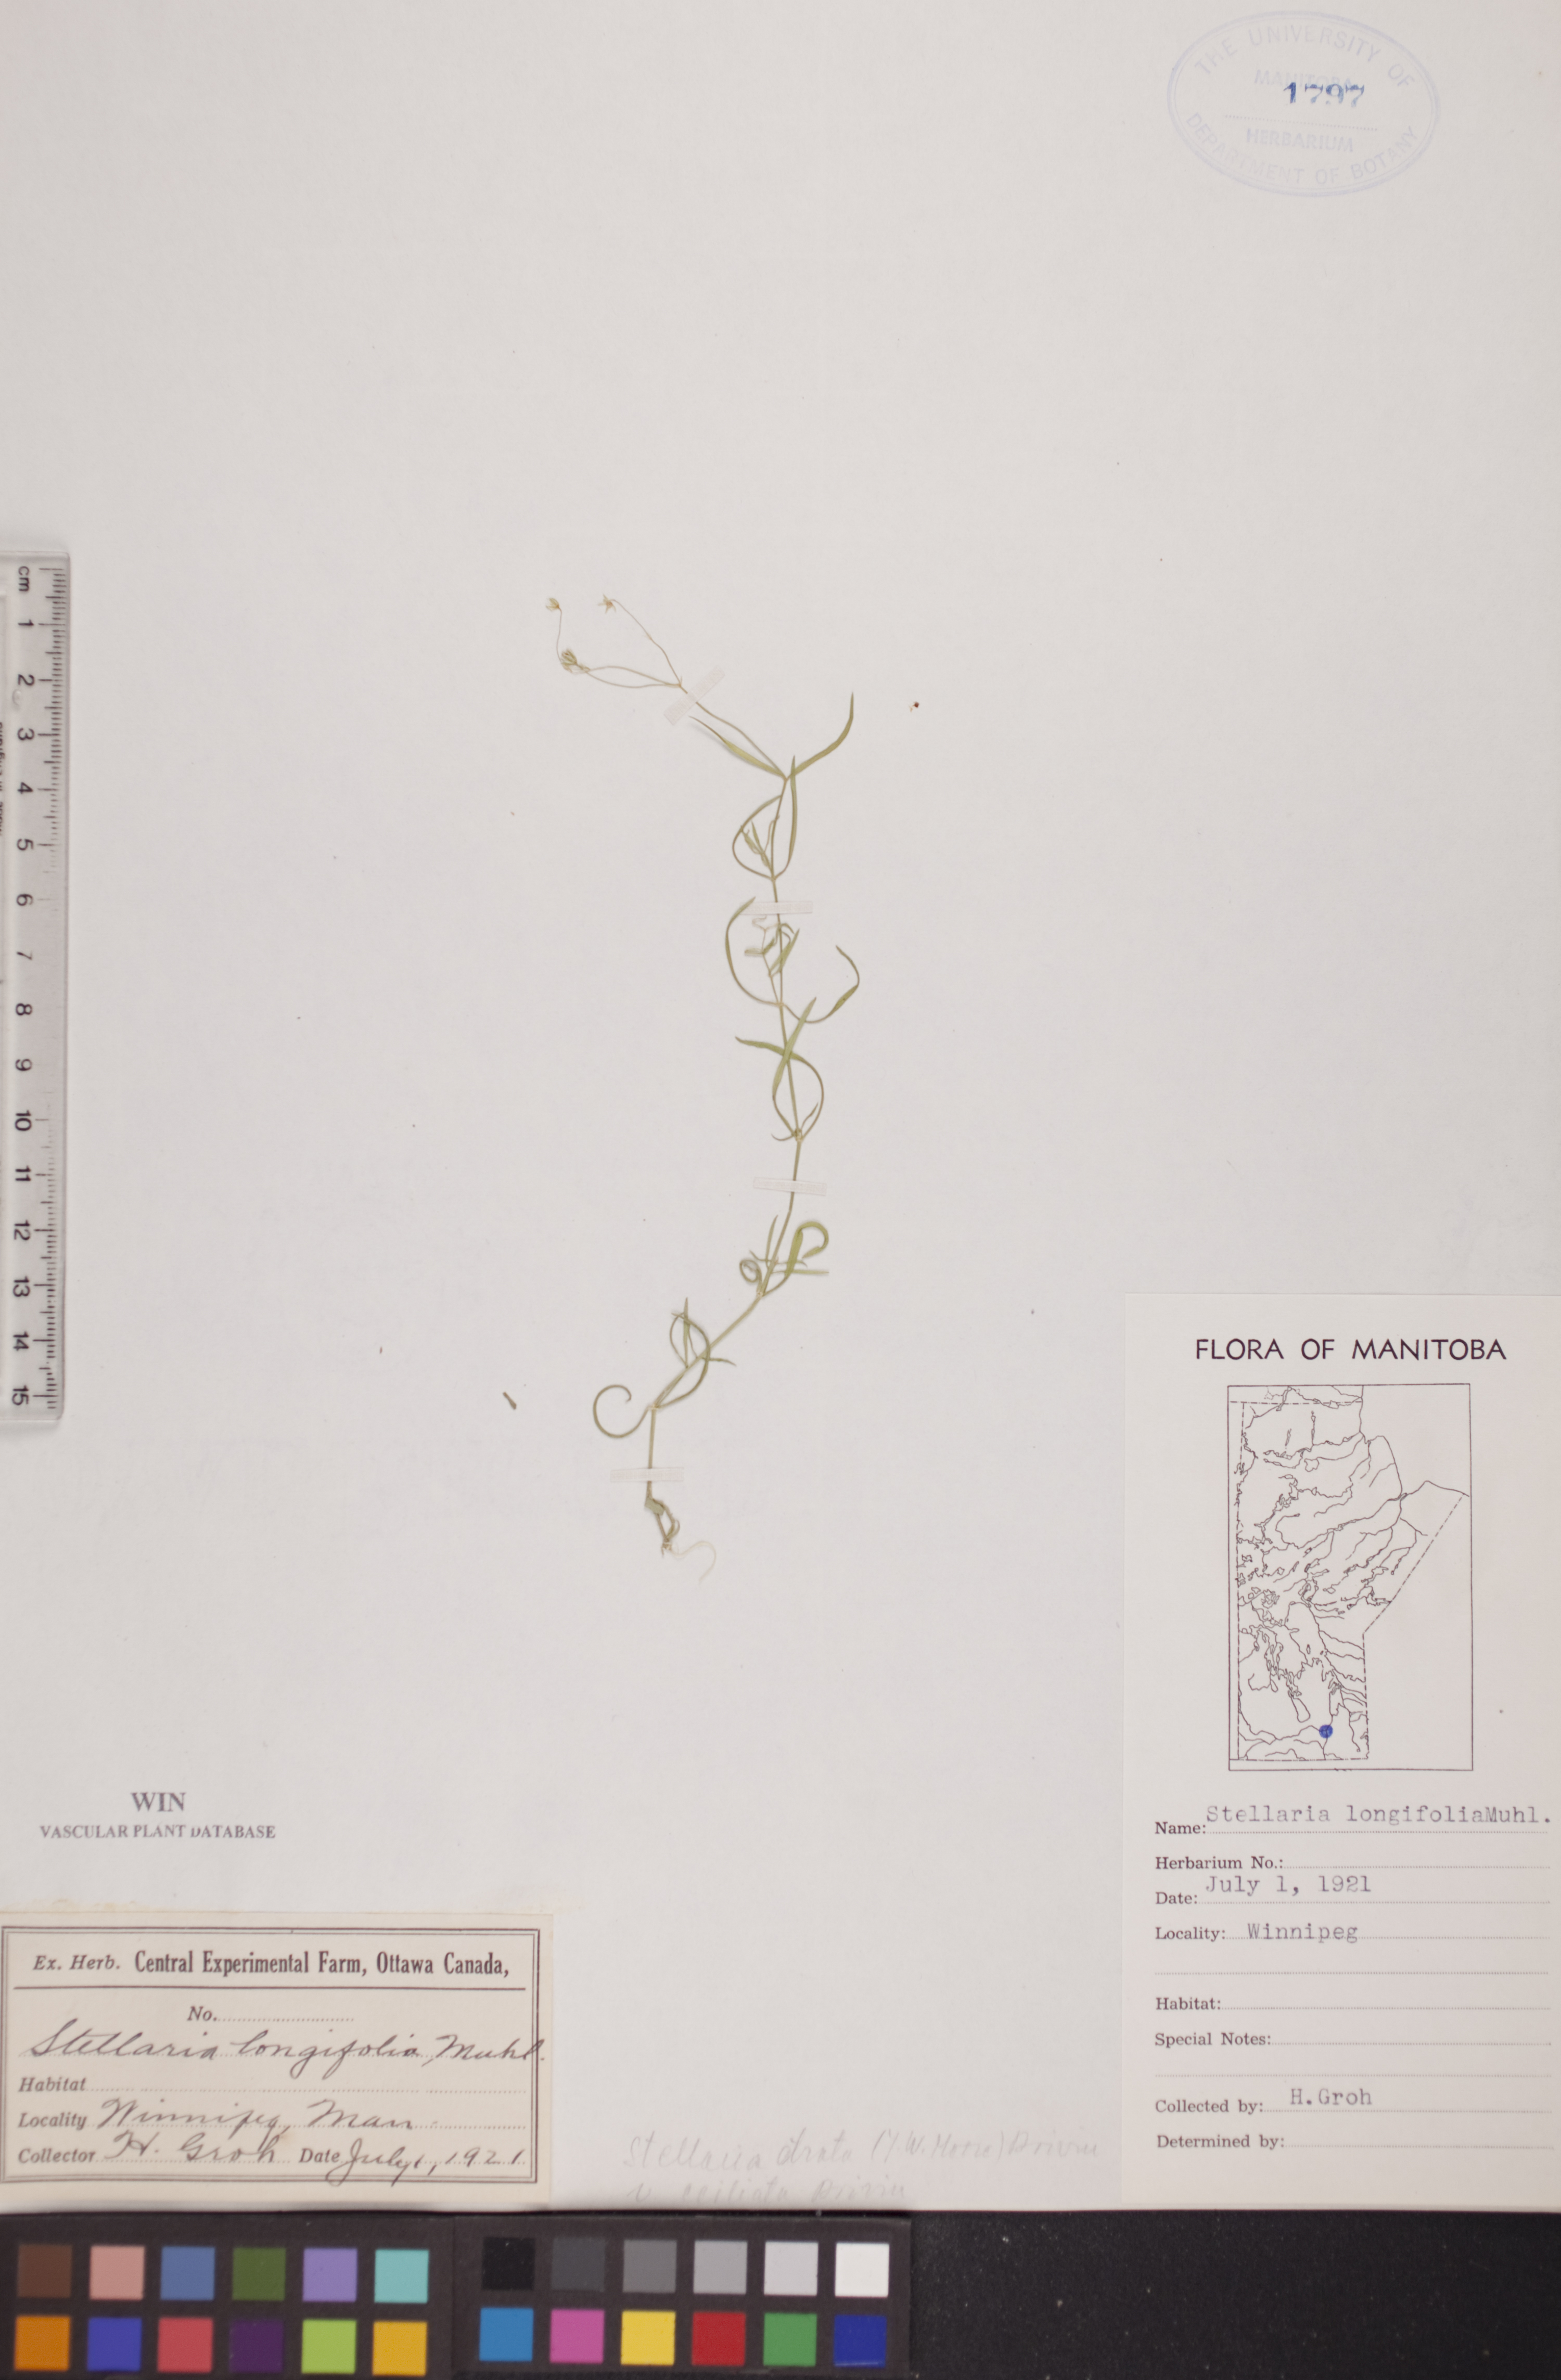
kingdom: Plantae
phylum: Tracheophyta
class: Magnoliopsida
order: Caryophyllales
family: Caryophyllaceae
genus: Stellaria
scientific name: Stellaria longifolia
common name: Long-leaved chickweed
